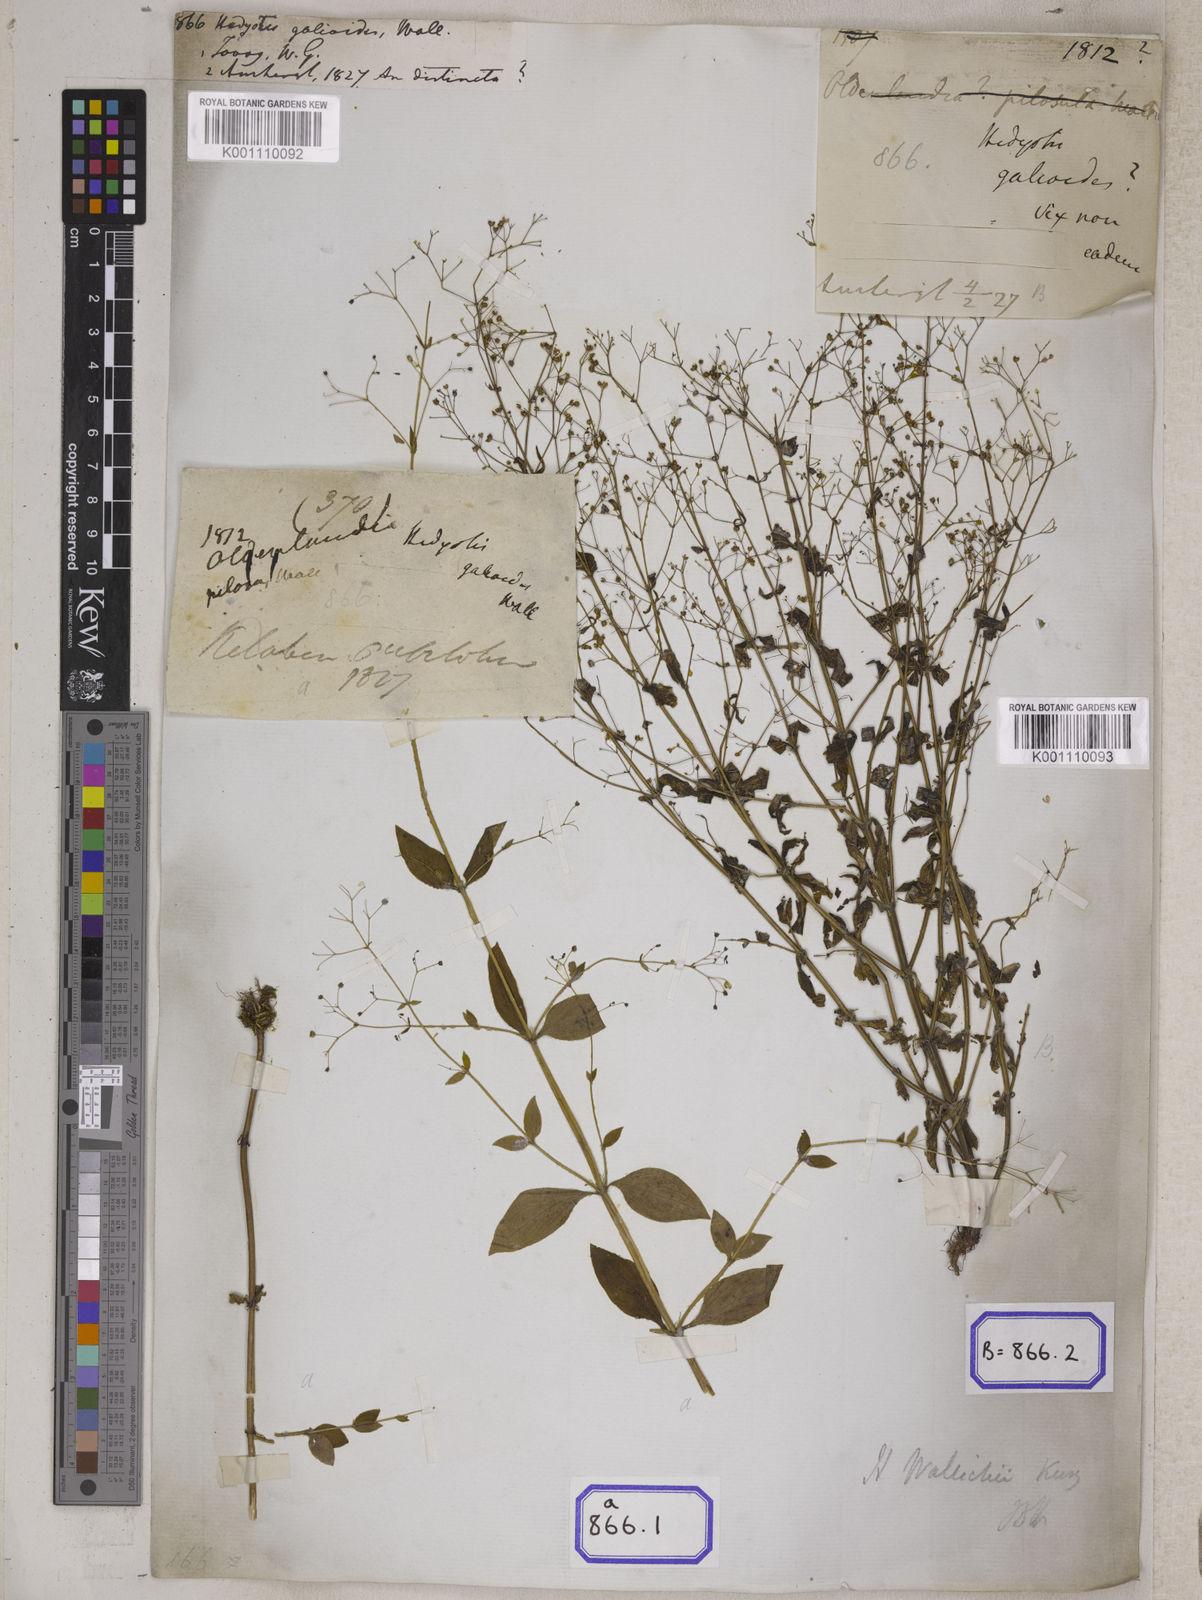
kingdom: Plantae
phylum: Tracheophyta
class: Magnoliopsida
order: Gentianales
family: Rubiaceae
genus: Hedyotis
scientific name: Hedyotis
